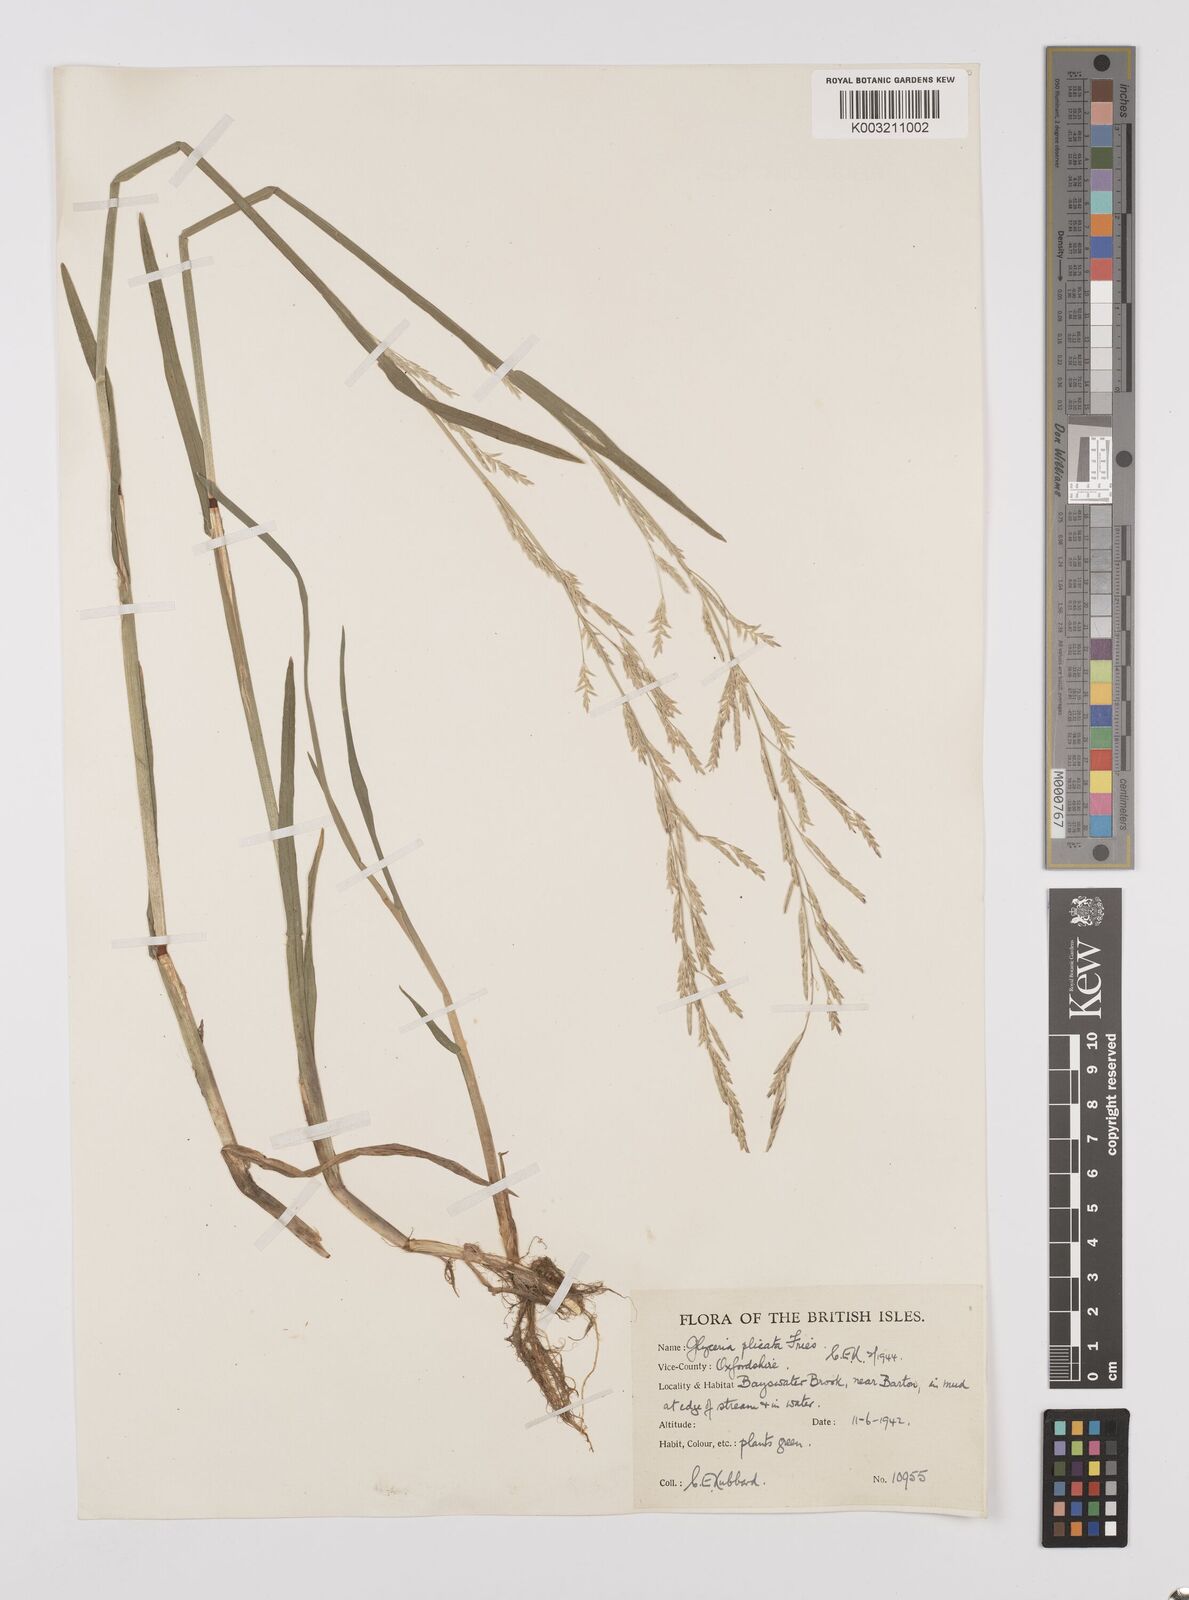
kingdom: Plantae
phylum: Tracheophyta
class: Liliopsida
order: Poales
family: Poaceae
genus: Glyceria
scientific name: Glyceria notata
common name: Plicate sweet-grass
